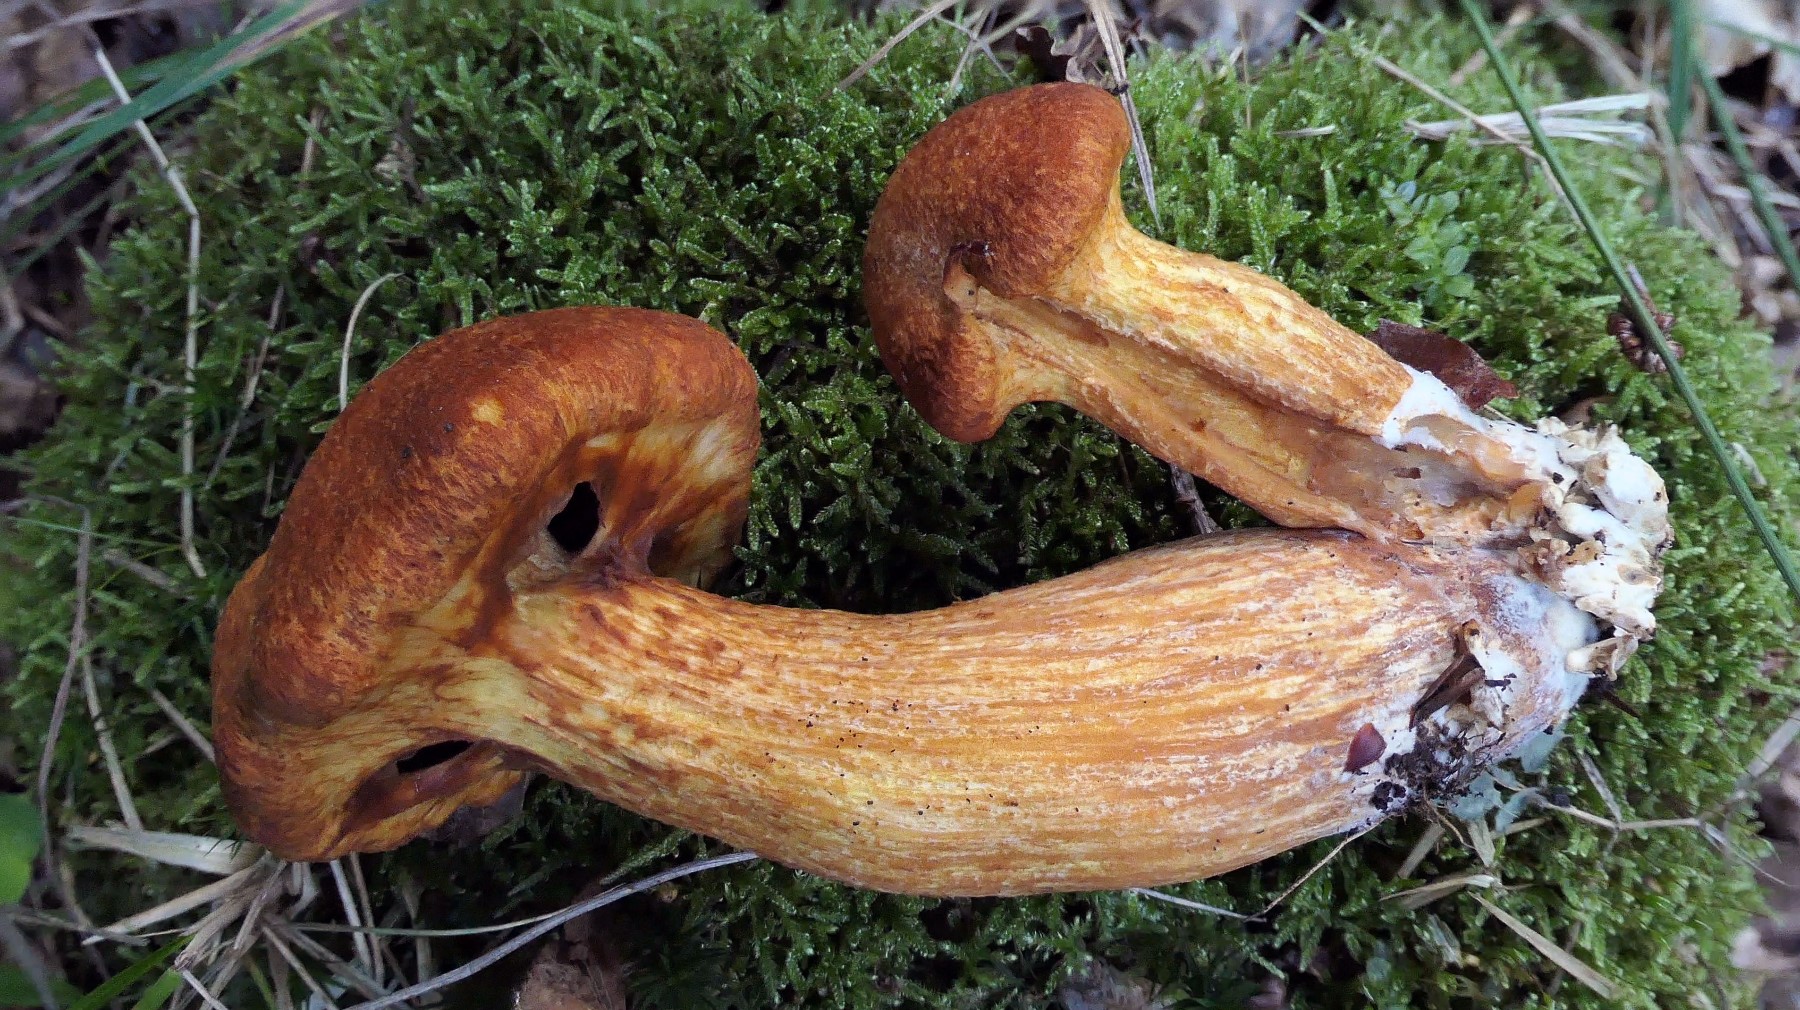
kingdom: Fungi
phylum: Basidiomycota
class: Agaricomycetes
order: Agaricales
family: Hymenogastraceae
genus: Gymnopilus
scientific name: Gymnopilus spectabilis
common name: fibret flammehat
